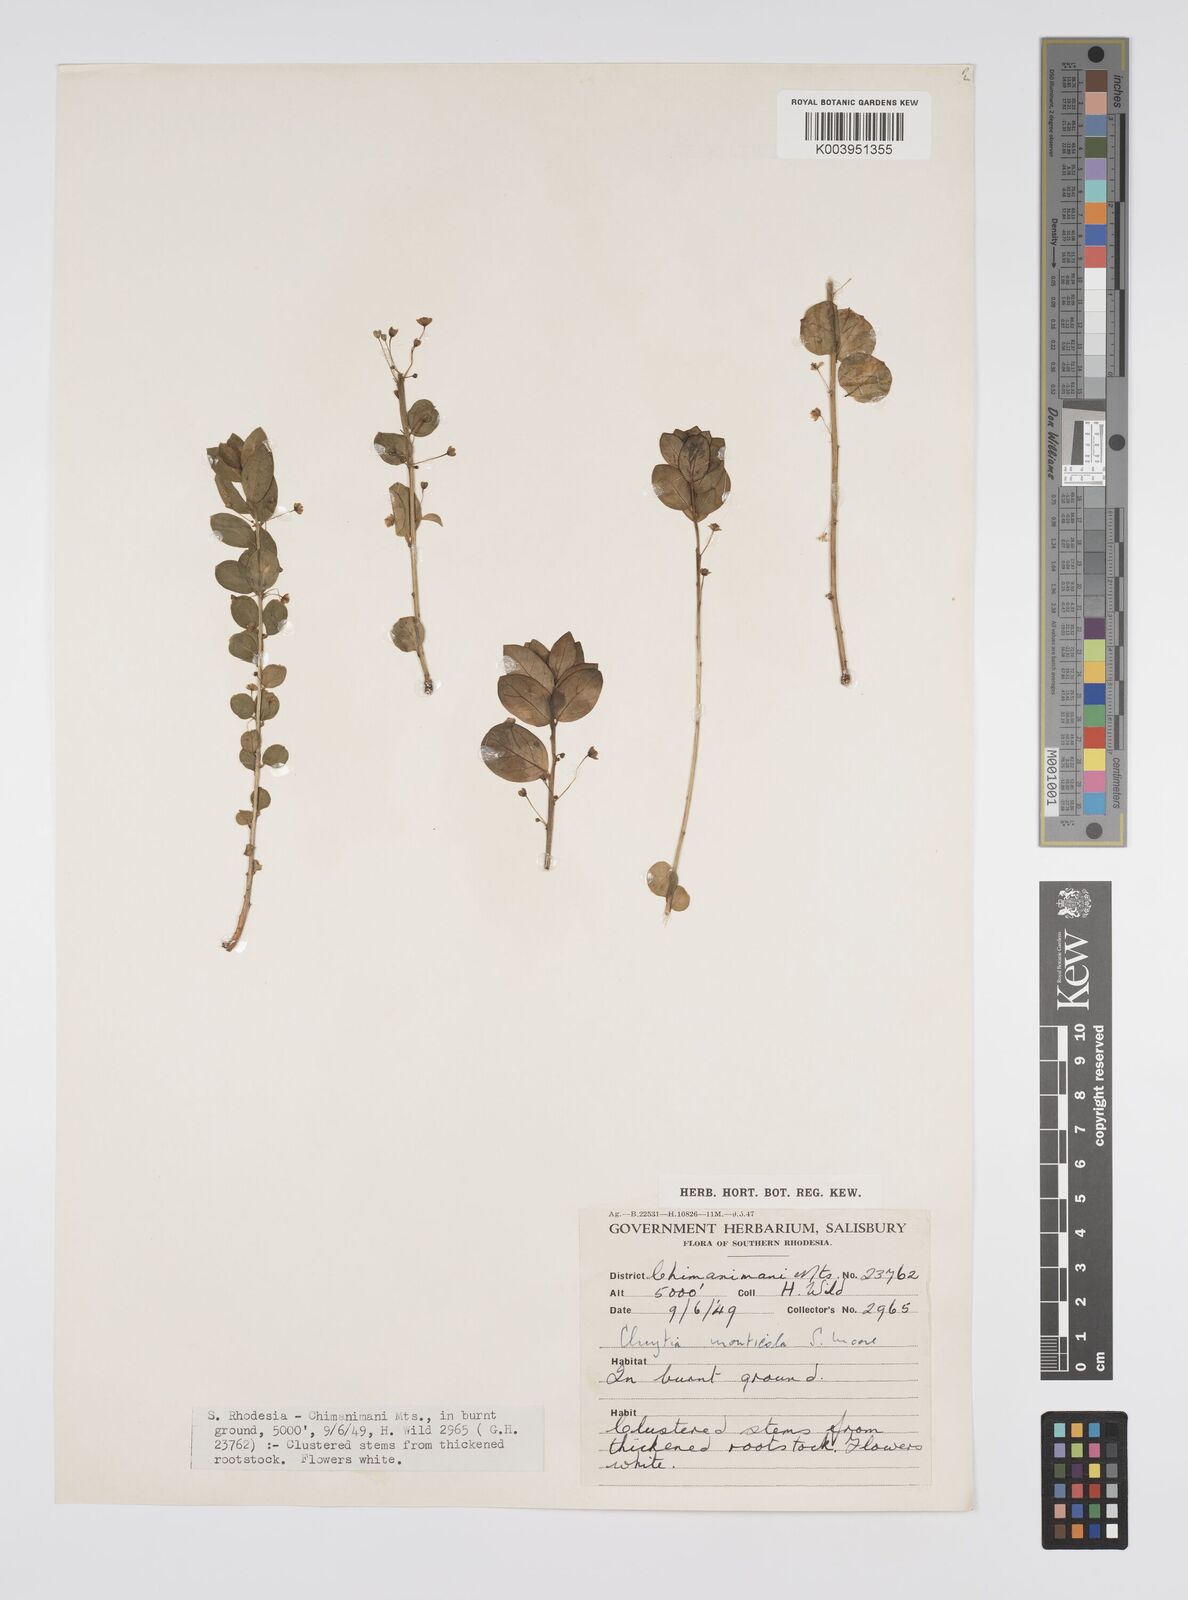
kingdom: Plantae
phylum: Tracheophyta
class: Magnoliopsida
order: Malpighiales
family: Peraceae
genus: Clutia
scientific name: Clutia monticola
